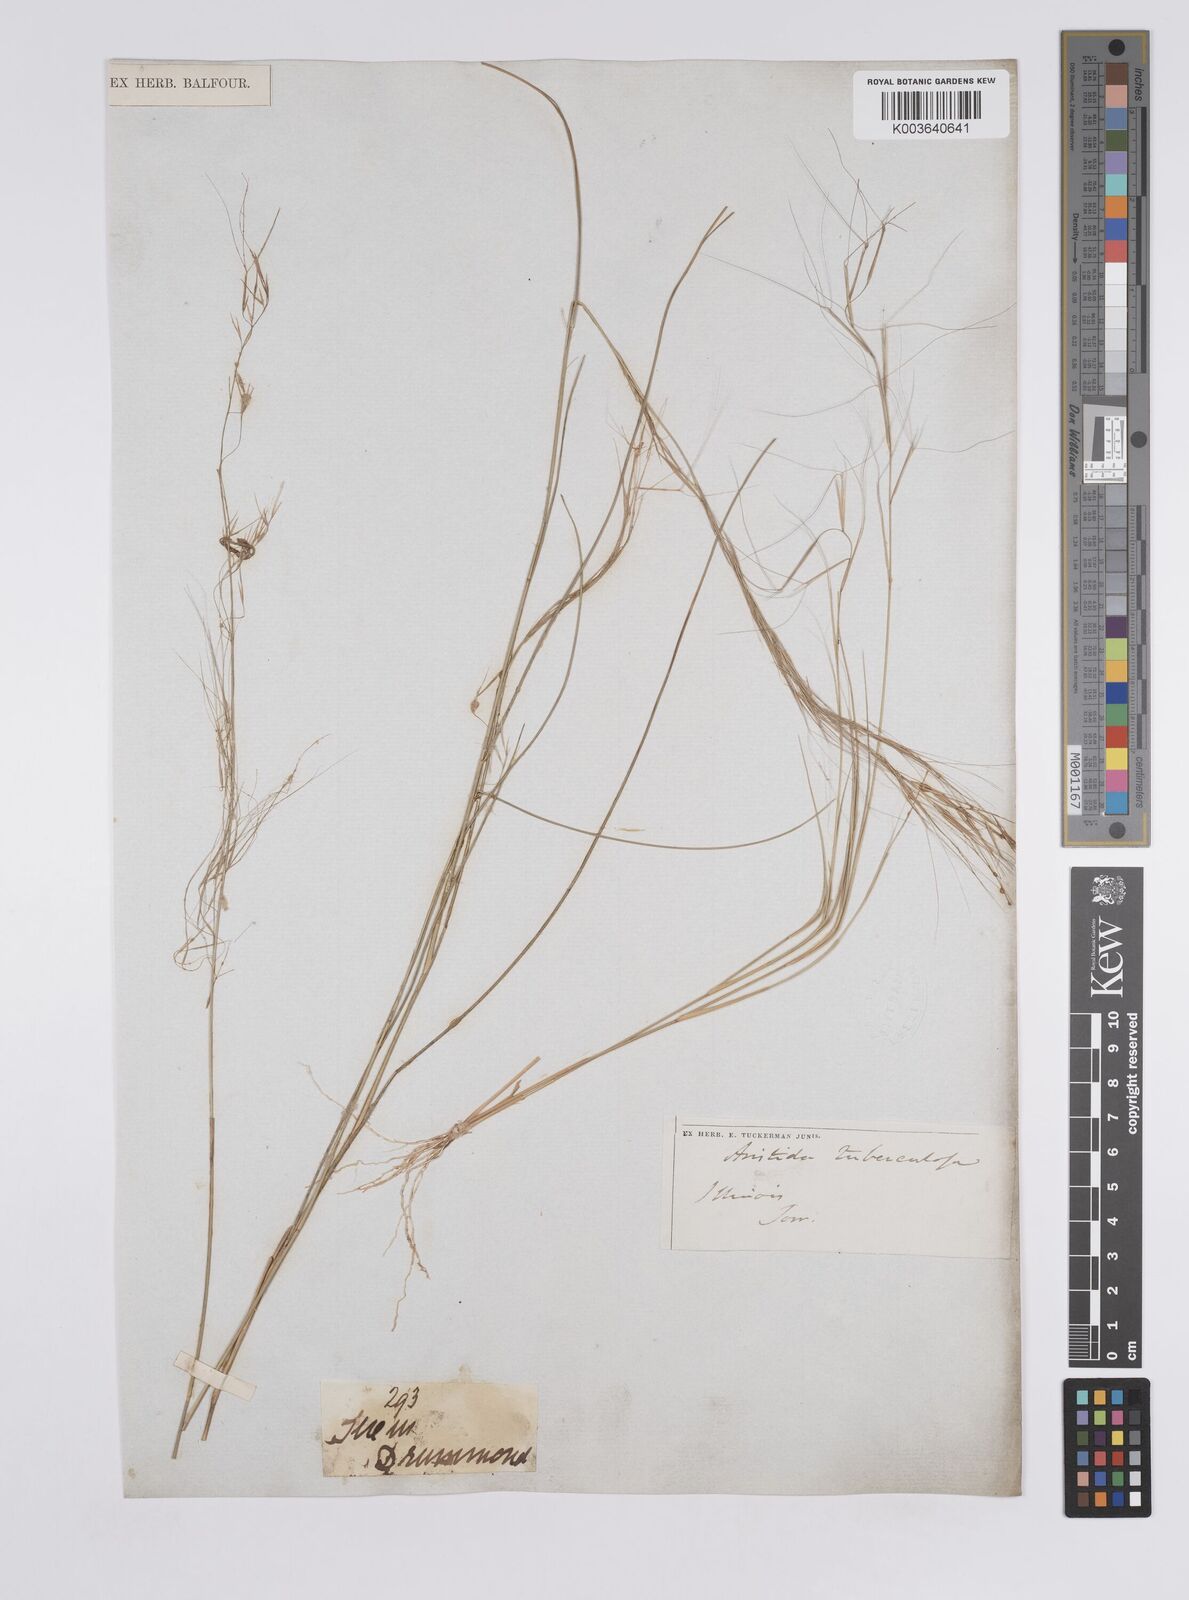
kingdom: Plantae
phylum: Tracheophyta
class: Liliopsida
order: Poales
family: Poaceae
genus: Aristida
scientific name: Aristida oligantha
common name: Few-flowered aristida
